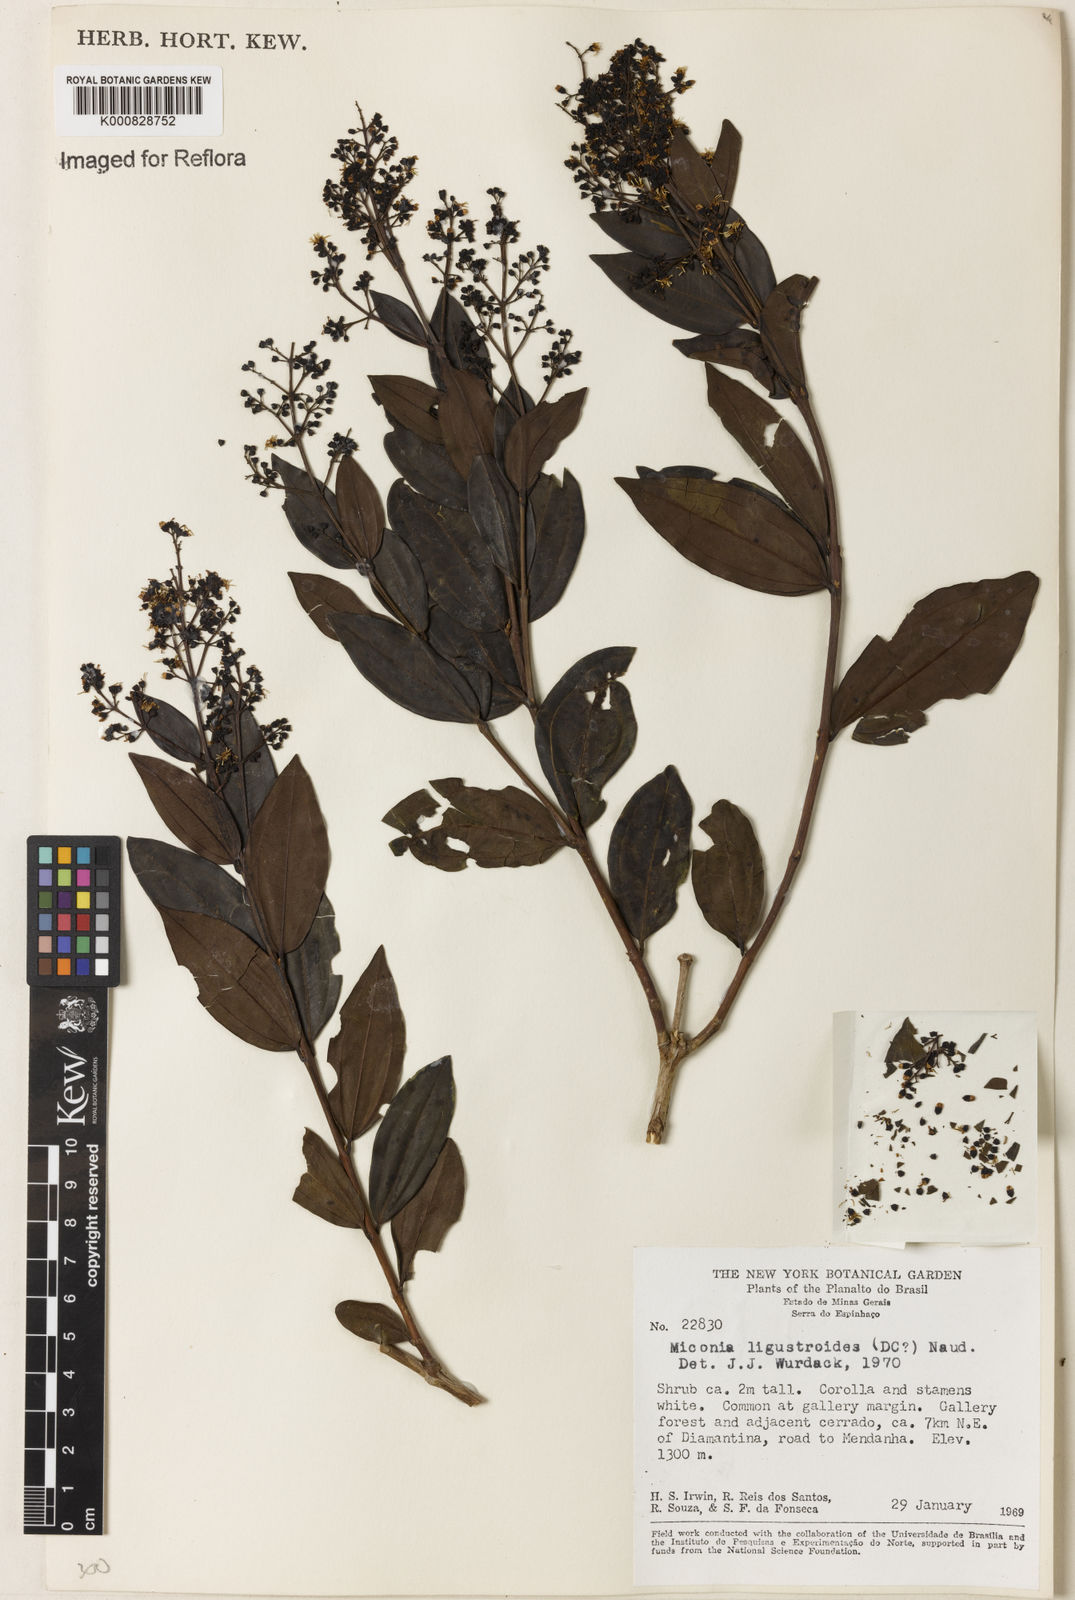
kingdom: Plantae
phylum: Tracheophyta
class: Magnoliopsida
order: Myrtales
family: Melastomataceae
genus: Miconia
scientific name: Miconia ligustroides
